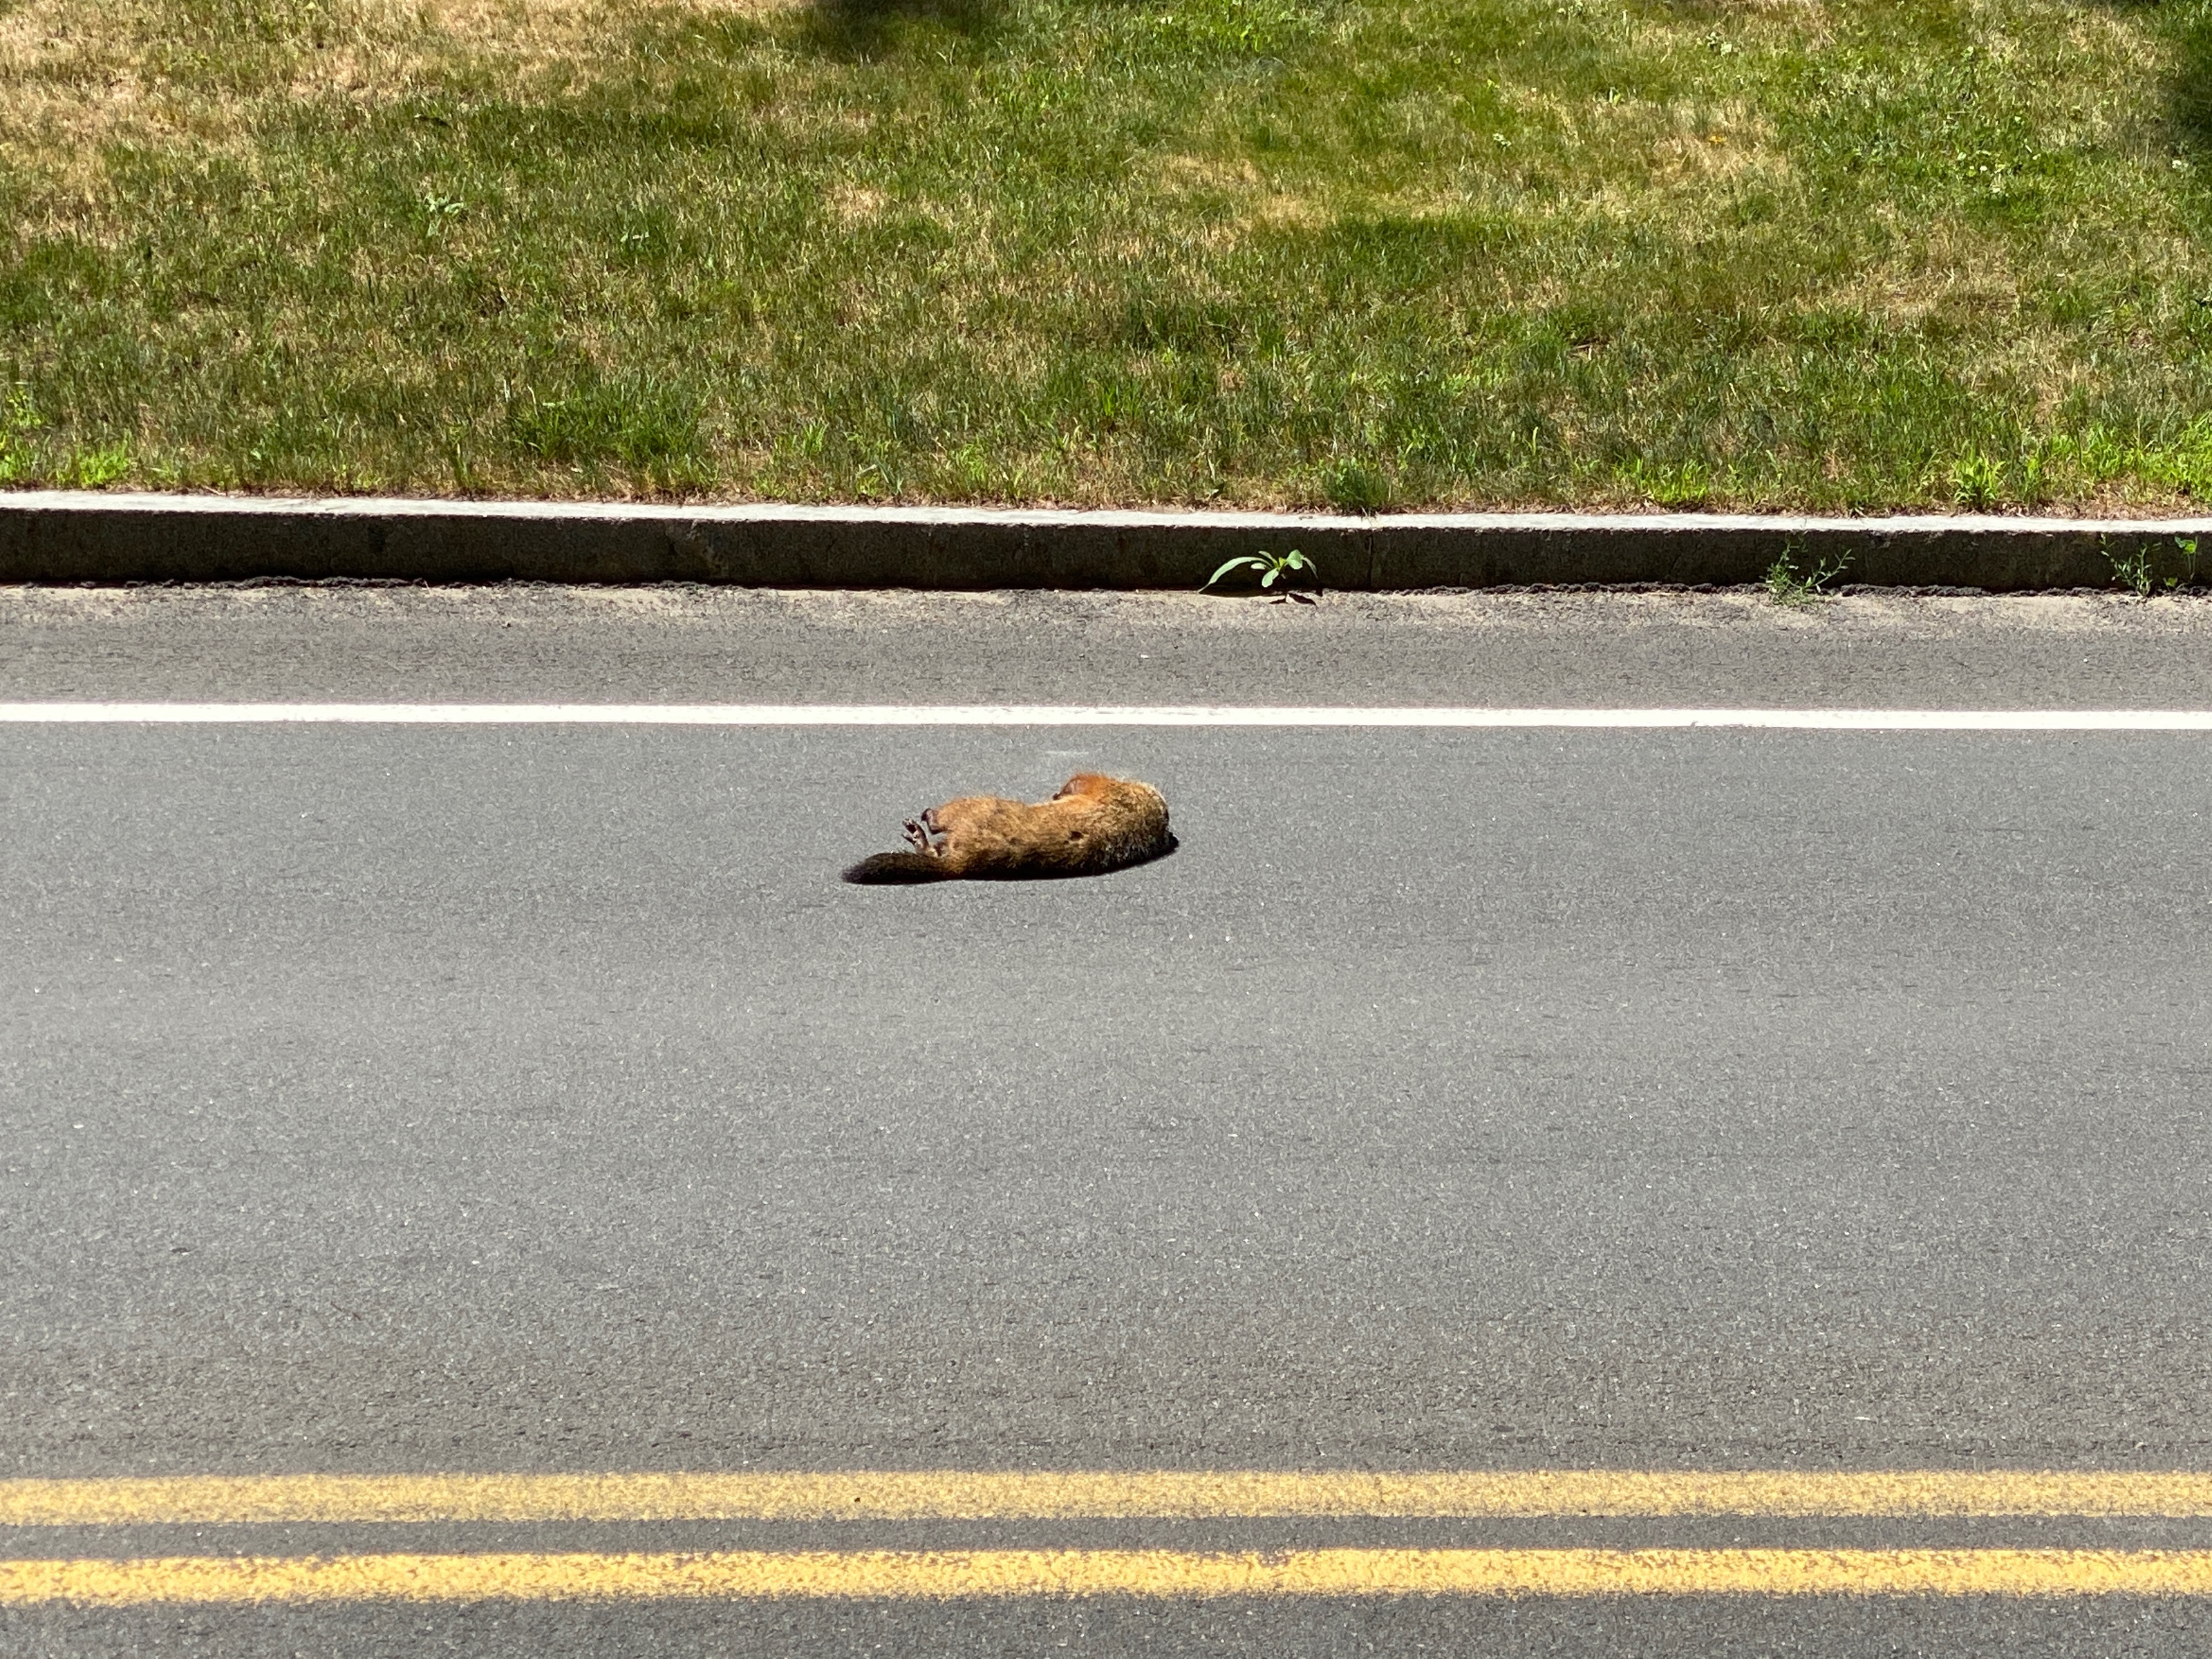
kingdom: Animalia
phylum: Chordata
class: Mammalia
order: Rodentia
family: Sciuridae
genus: Marmota
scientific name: Marmota monax
